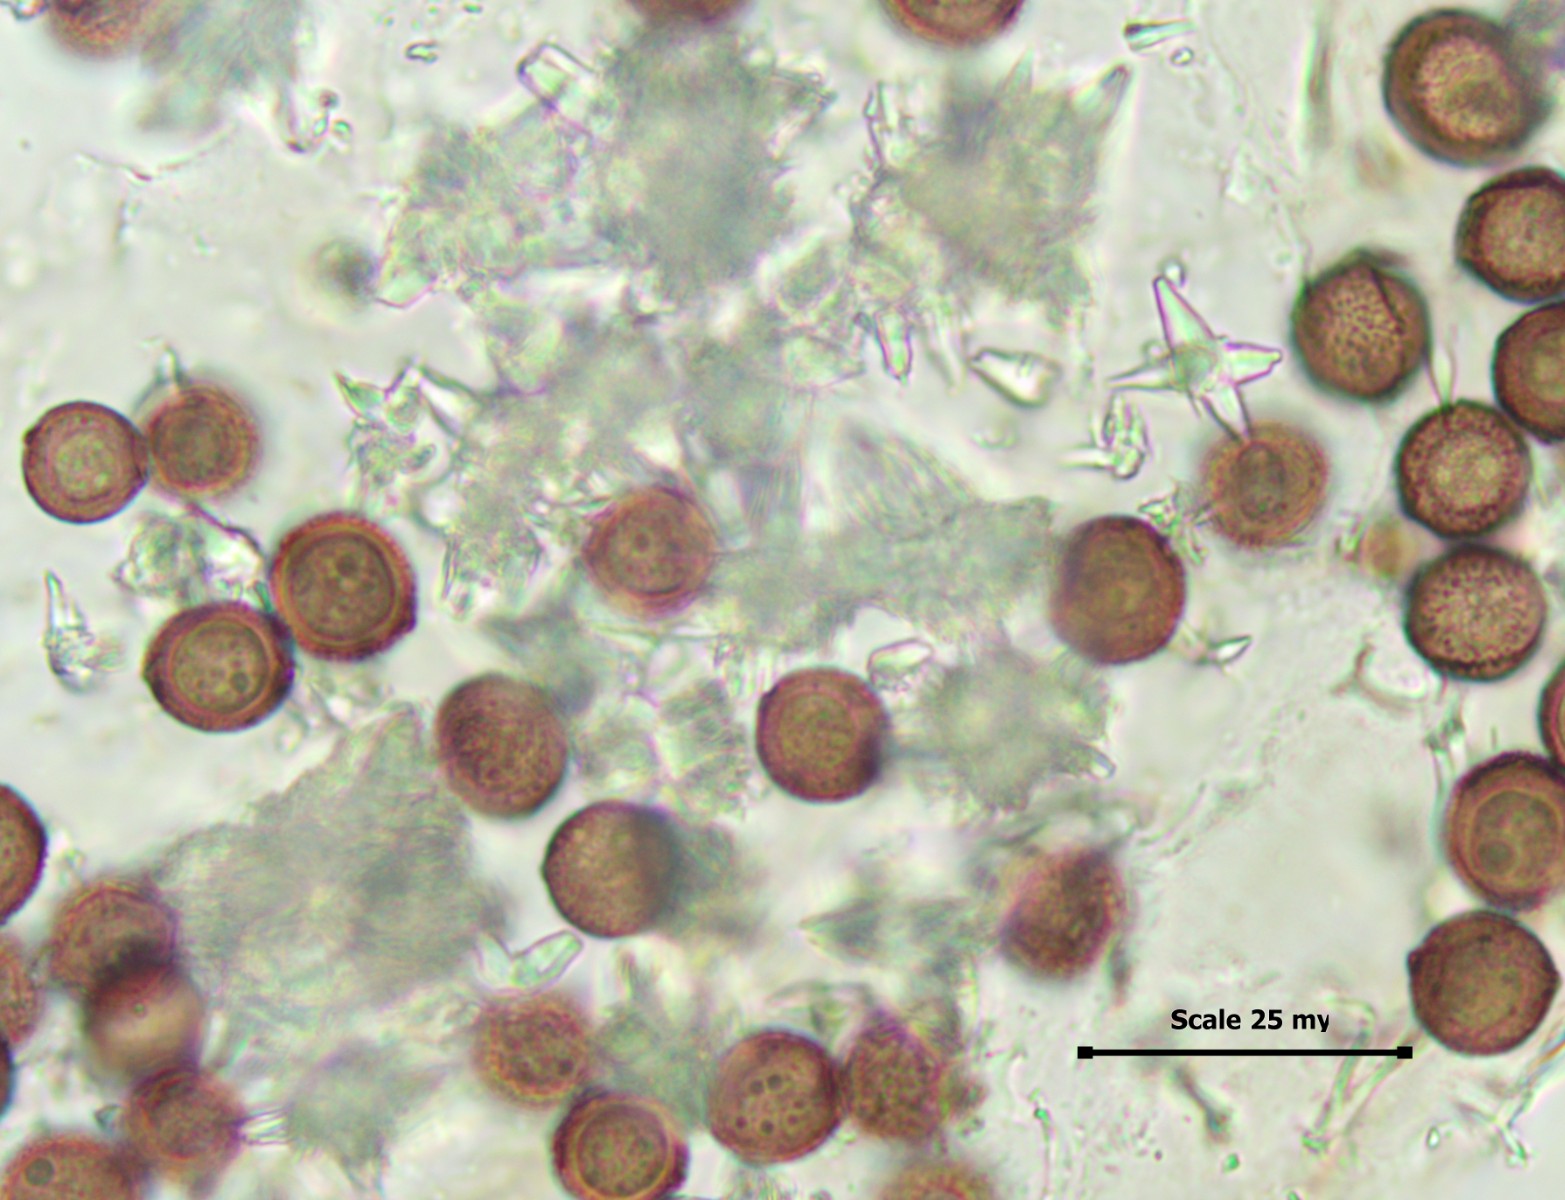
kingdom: Protozoa
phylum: Mycetozoa
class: Myxomycetes
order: Physarales
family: Didymiaceae
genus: Didymium
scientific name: Didymium squamulosum
